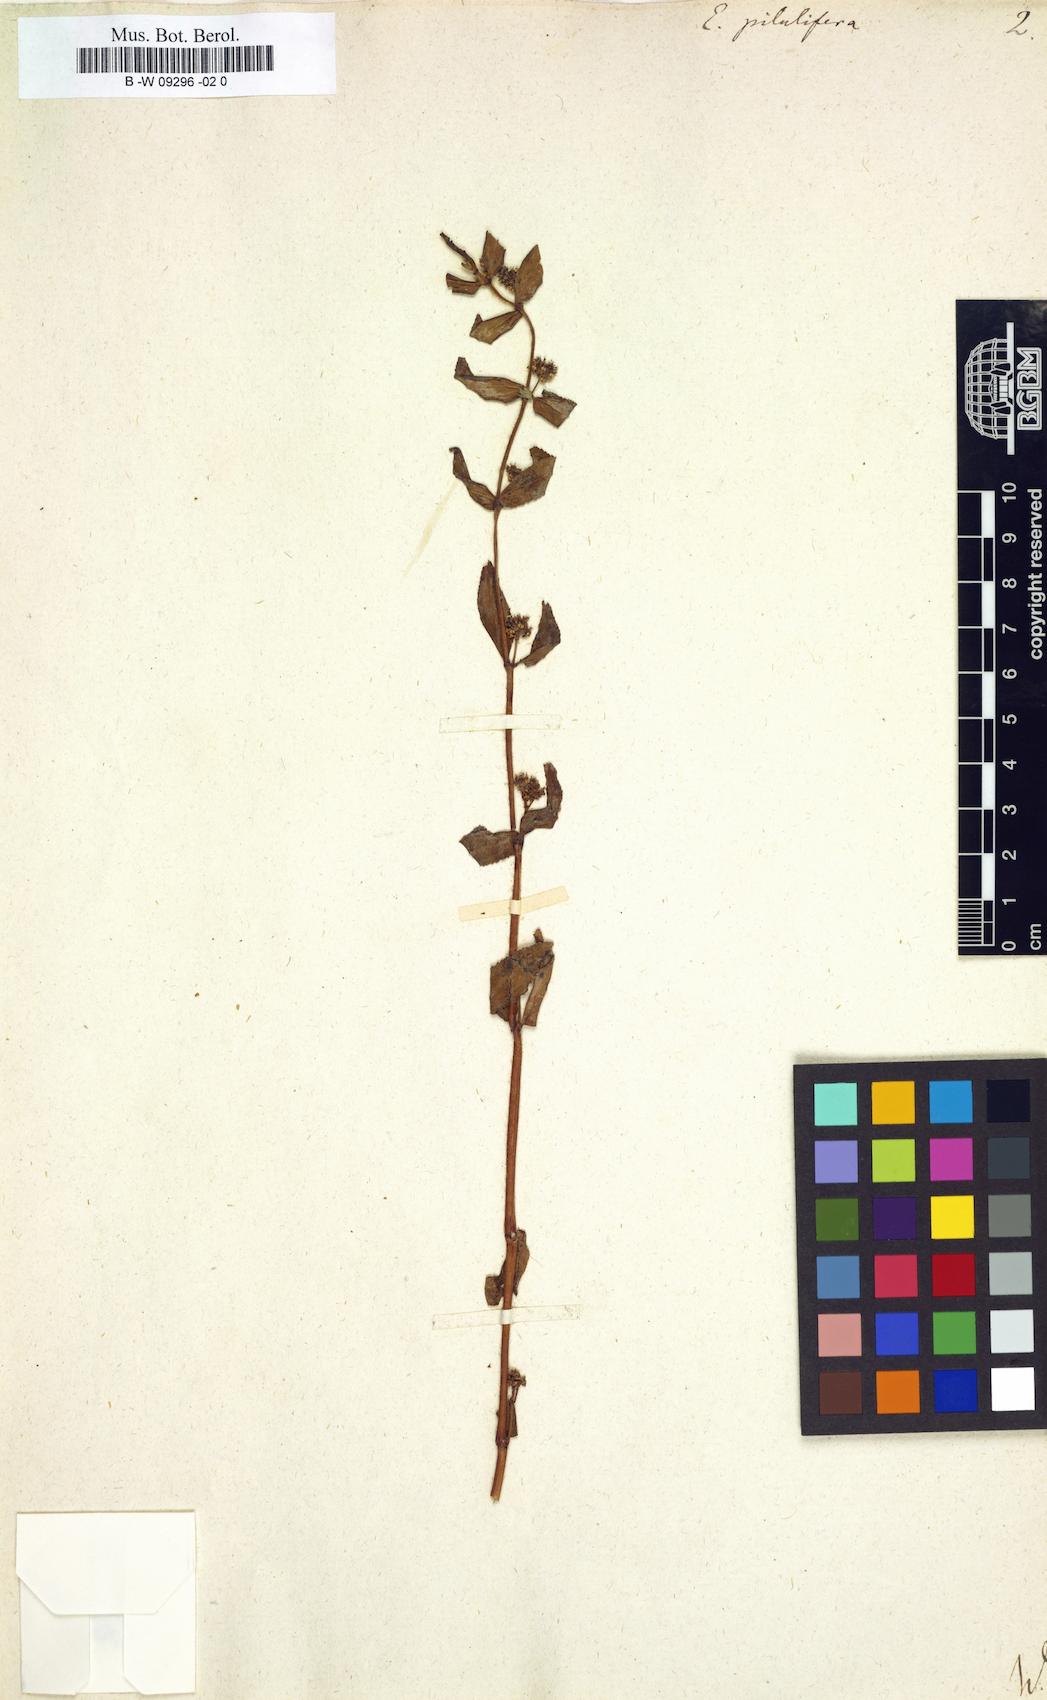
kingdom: Plantae
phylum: Tracheophyta
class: Magnoliopsida
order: Malpighiales
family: Euphorbiaceae
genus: Euphorbia
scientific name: Euphorbia pilulifera
